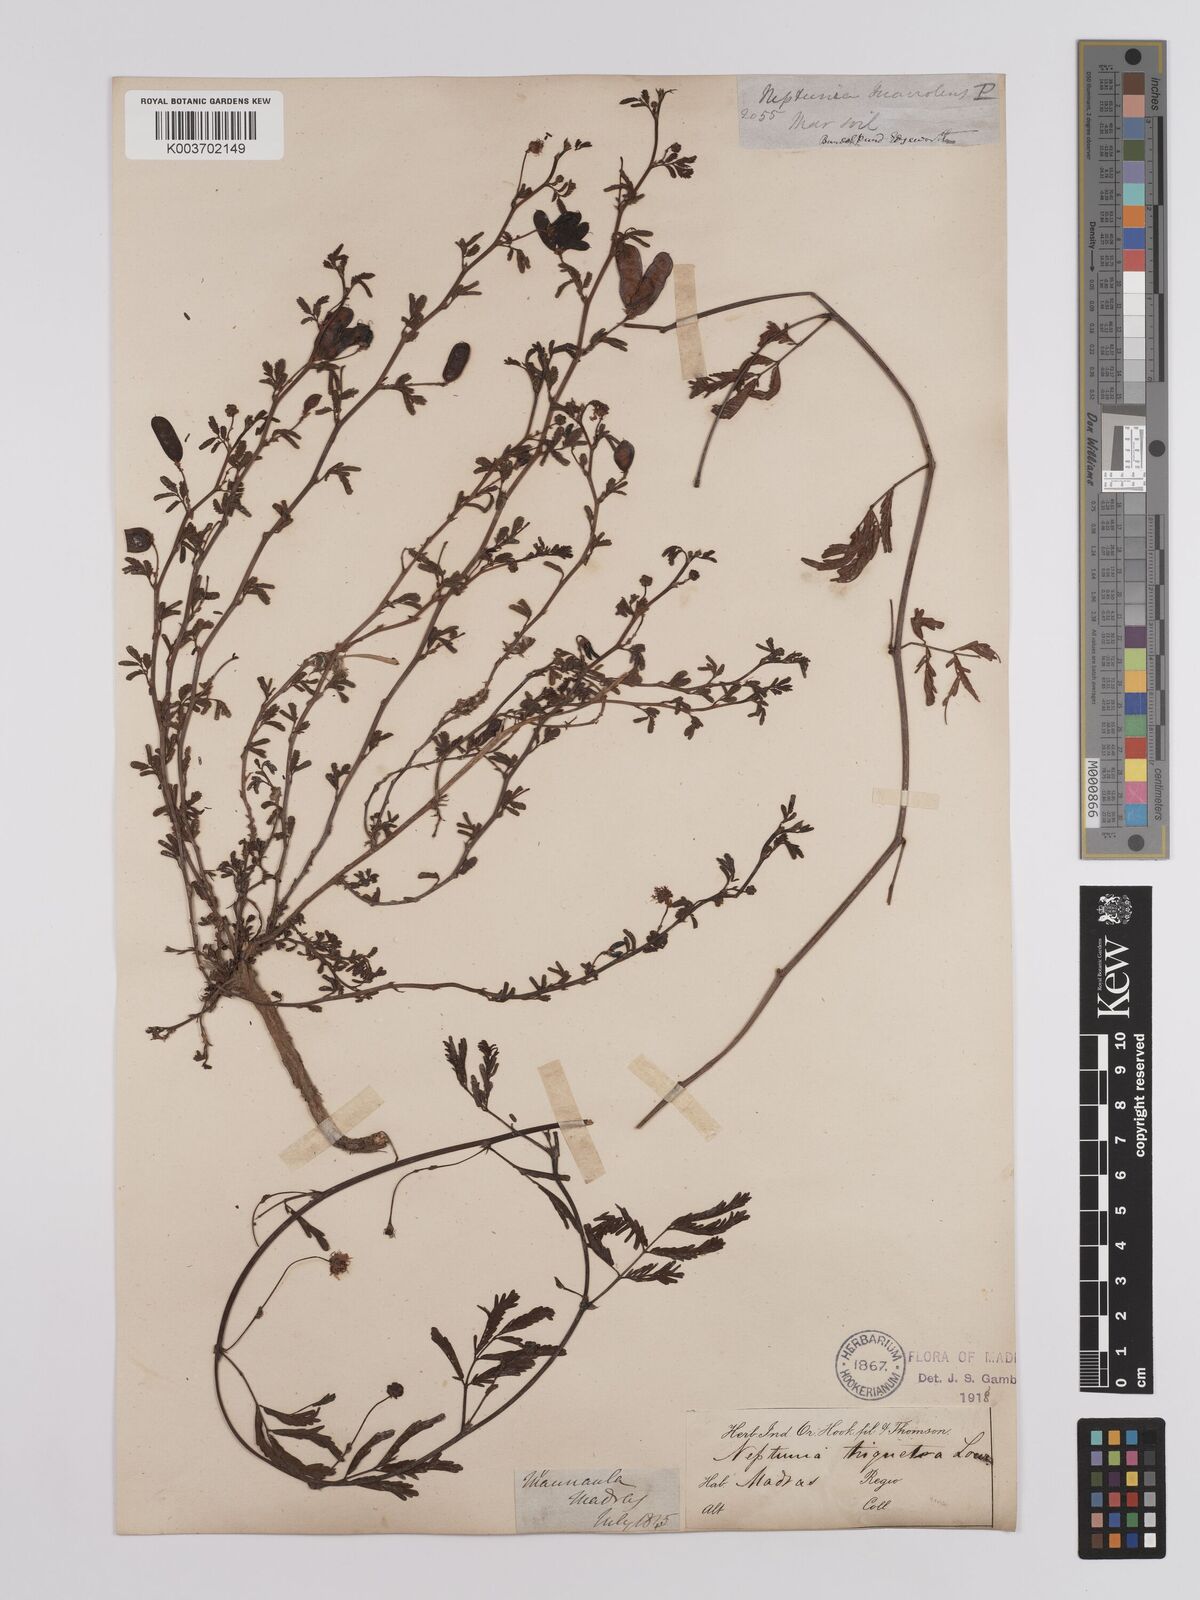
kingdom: Plantae
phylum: Tracheophyta
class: Magnoliopsida
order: Fabales
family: Fabaceae
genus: Neptunia
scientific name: Neptunia triquetra
